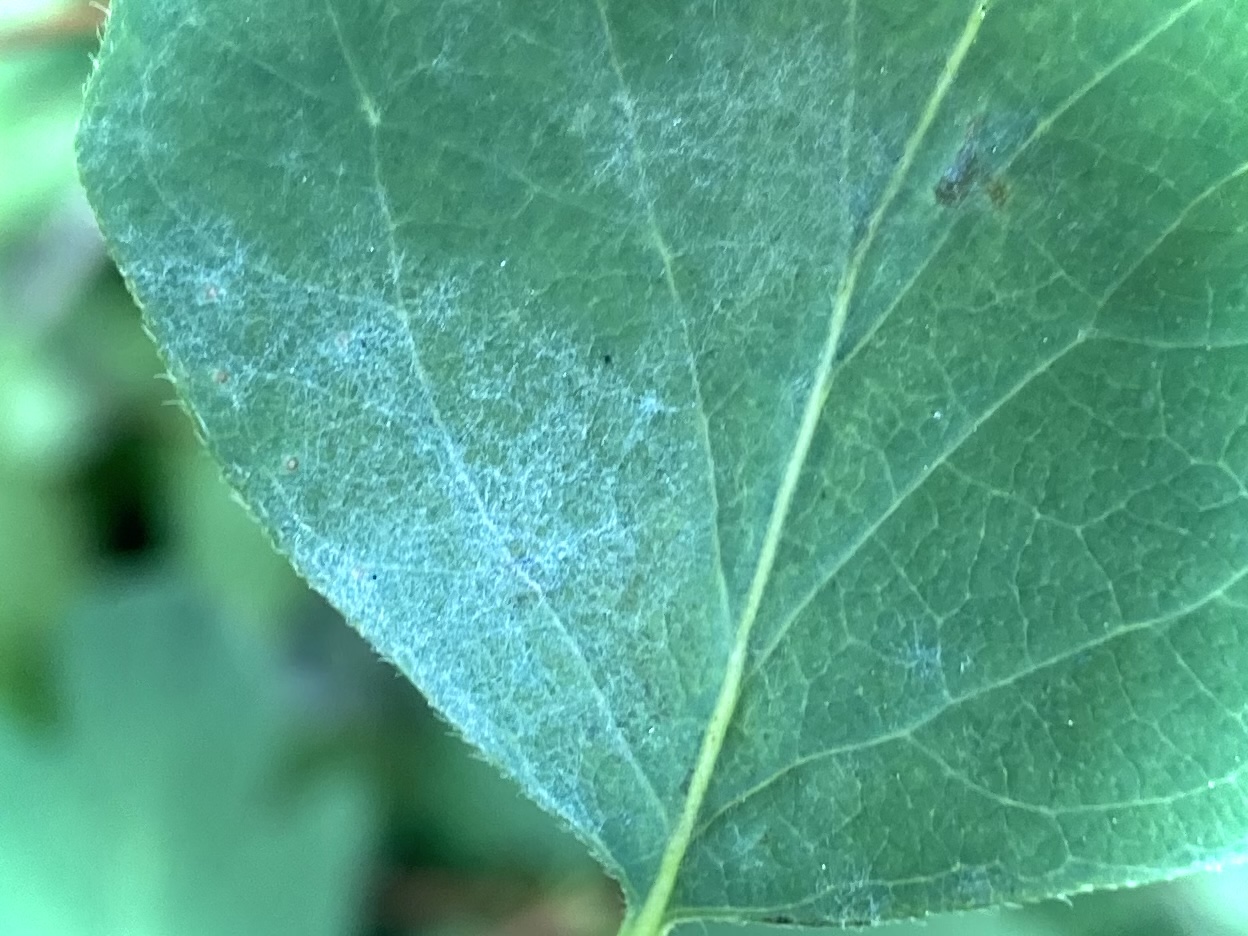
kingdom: Fungi
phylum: Ascomycota
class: Leotiomycetes
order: Helotiales
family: Erysiphaceae
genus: Erysiphe
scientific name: Erysiphe symphoricarpi
